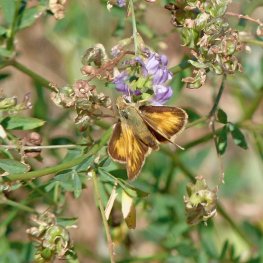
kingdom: Animalia
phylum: Arthropoda
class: Insecta
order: Lepidoptera
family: Hesperiidae
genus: Ochlodes
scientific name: Ochlodes sylvanoides
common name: Woodland Skipper
